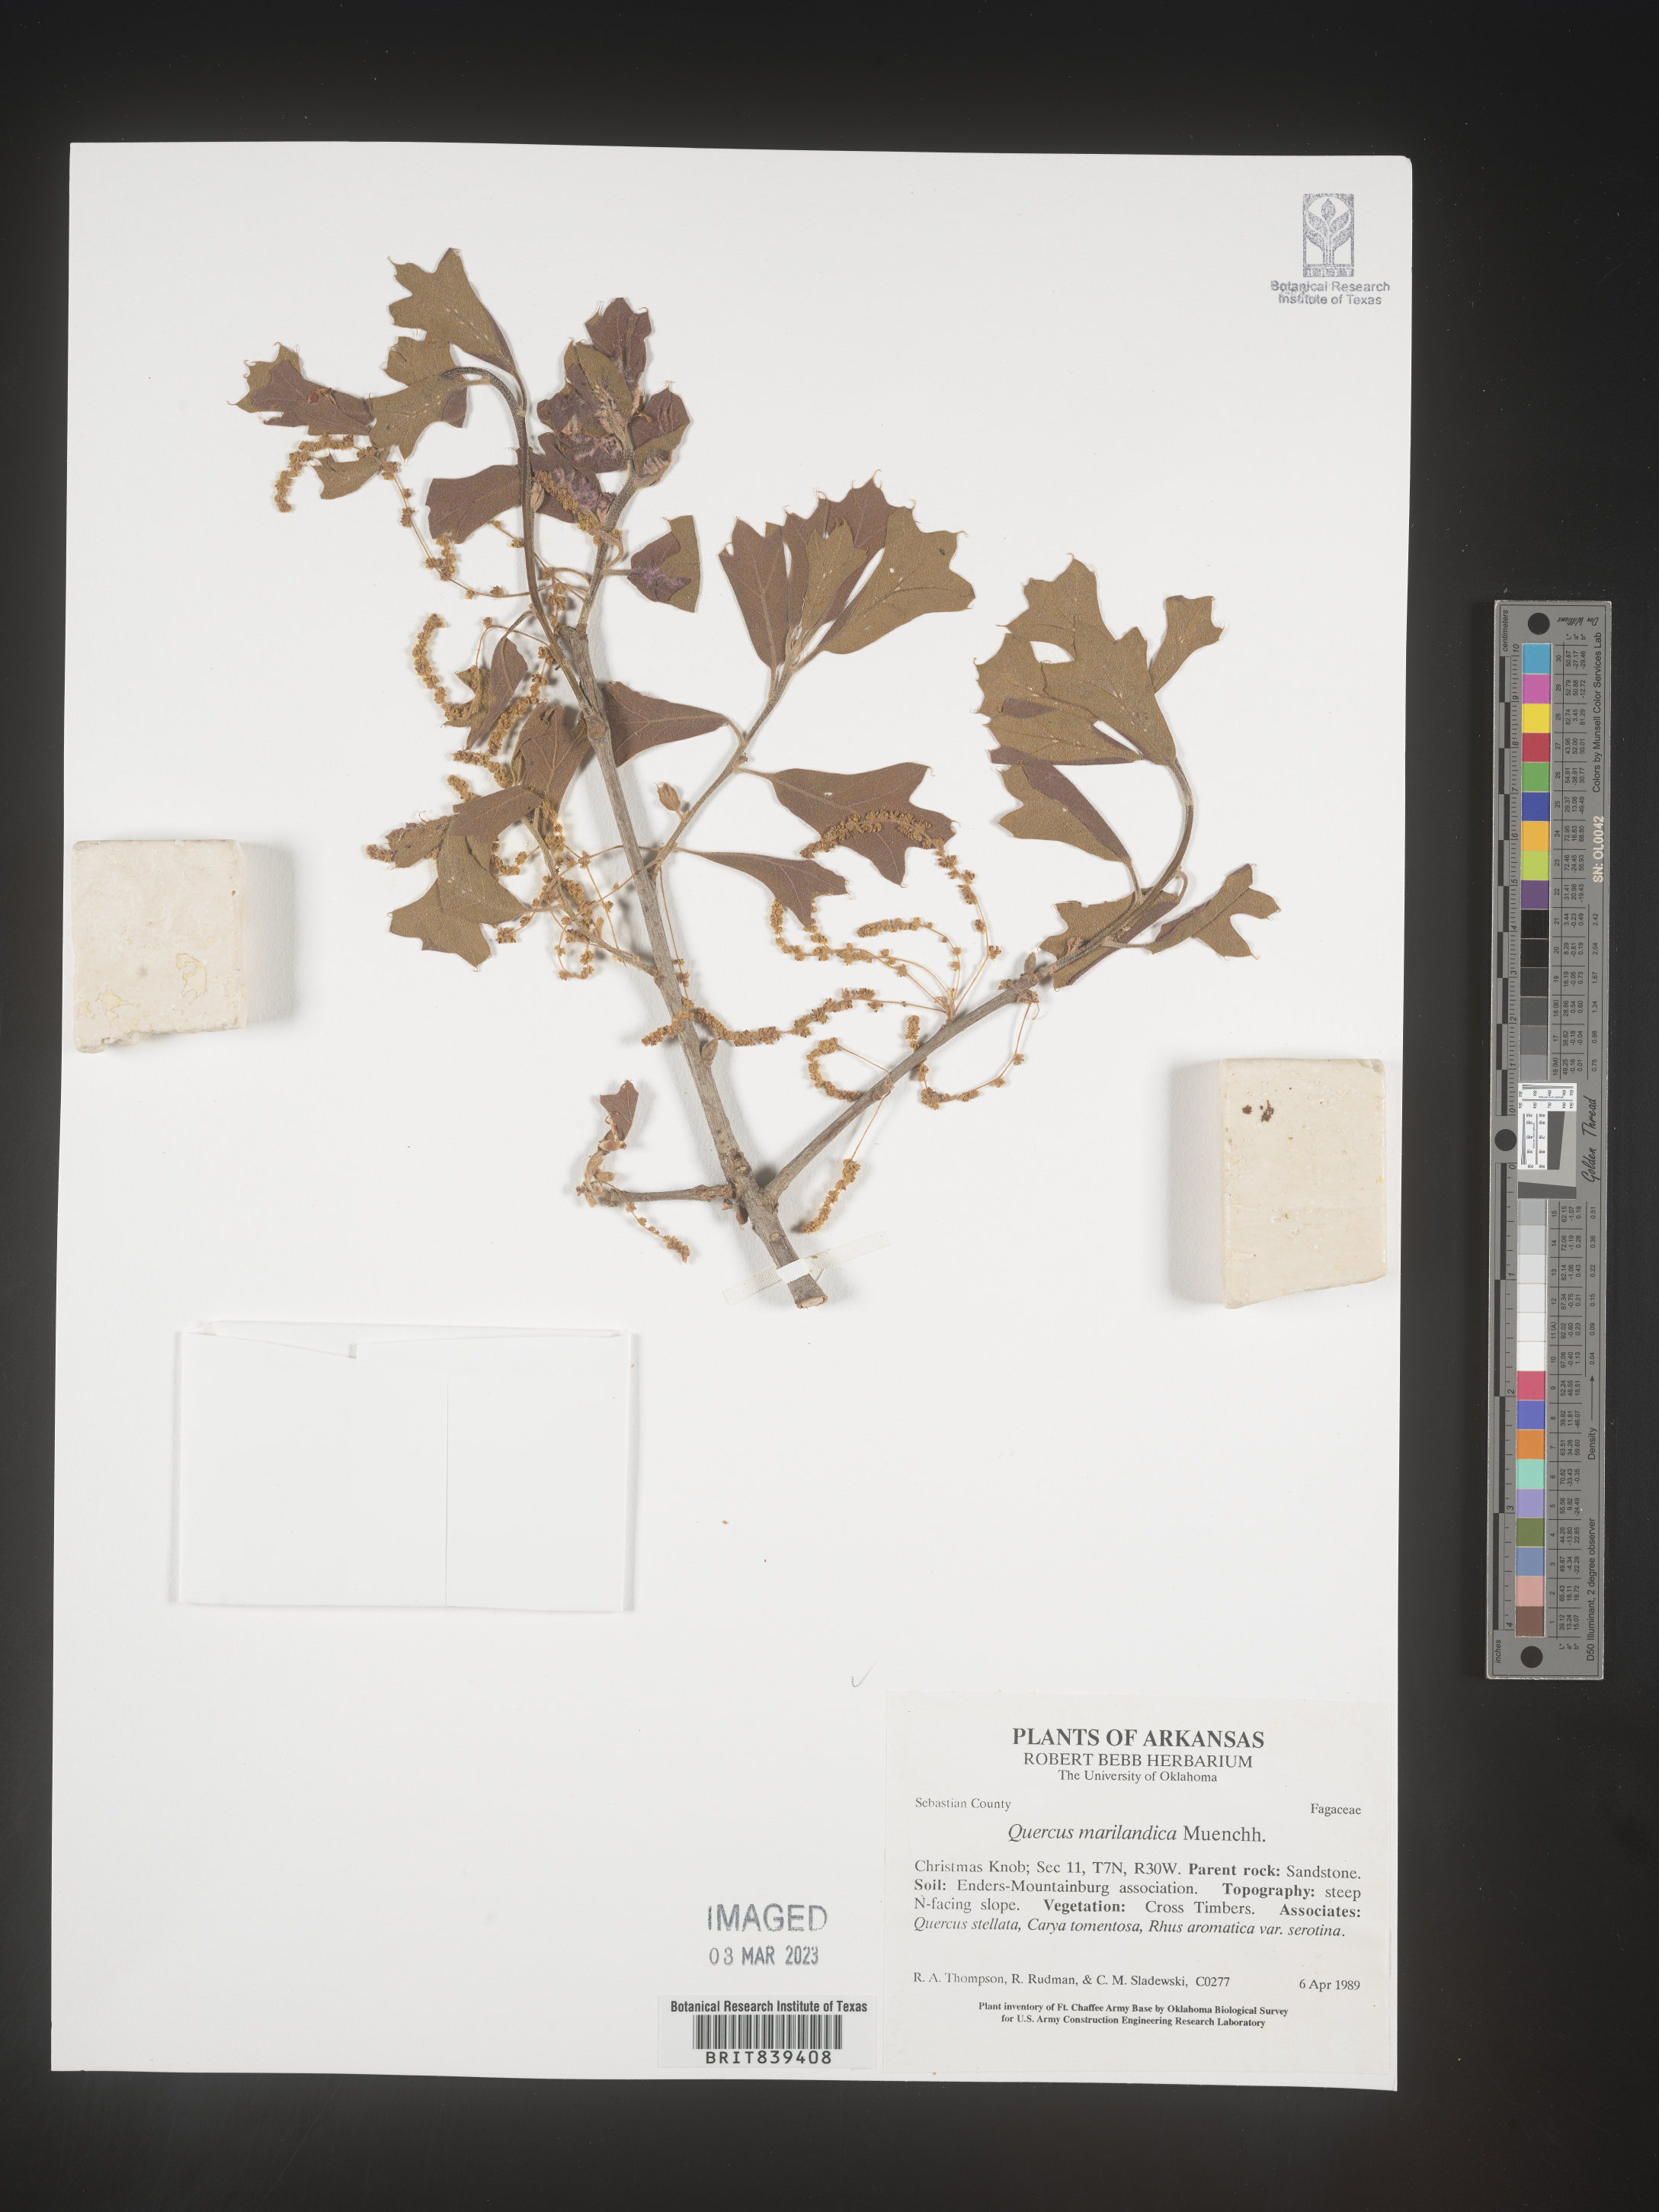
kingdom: Plantae
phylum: Tracheophyta
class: Magnoliopsida
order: Fagales
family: Fagaceae
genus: Quercus
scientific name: Quercus marilandica
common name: Blackjack oak
